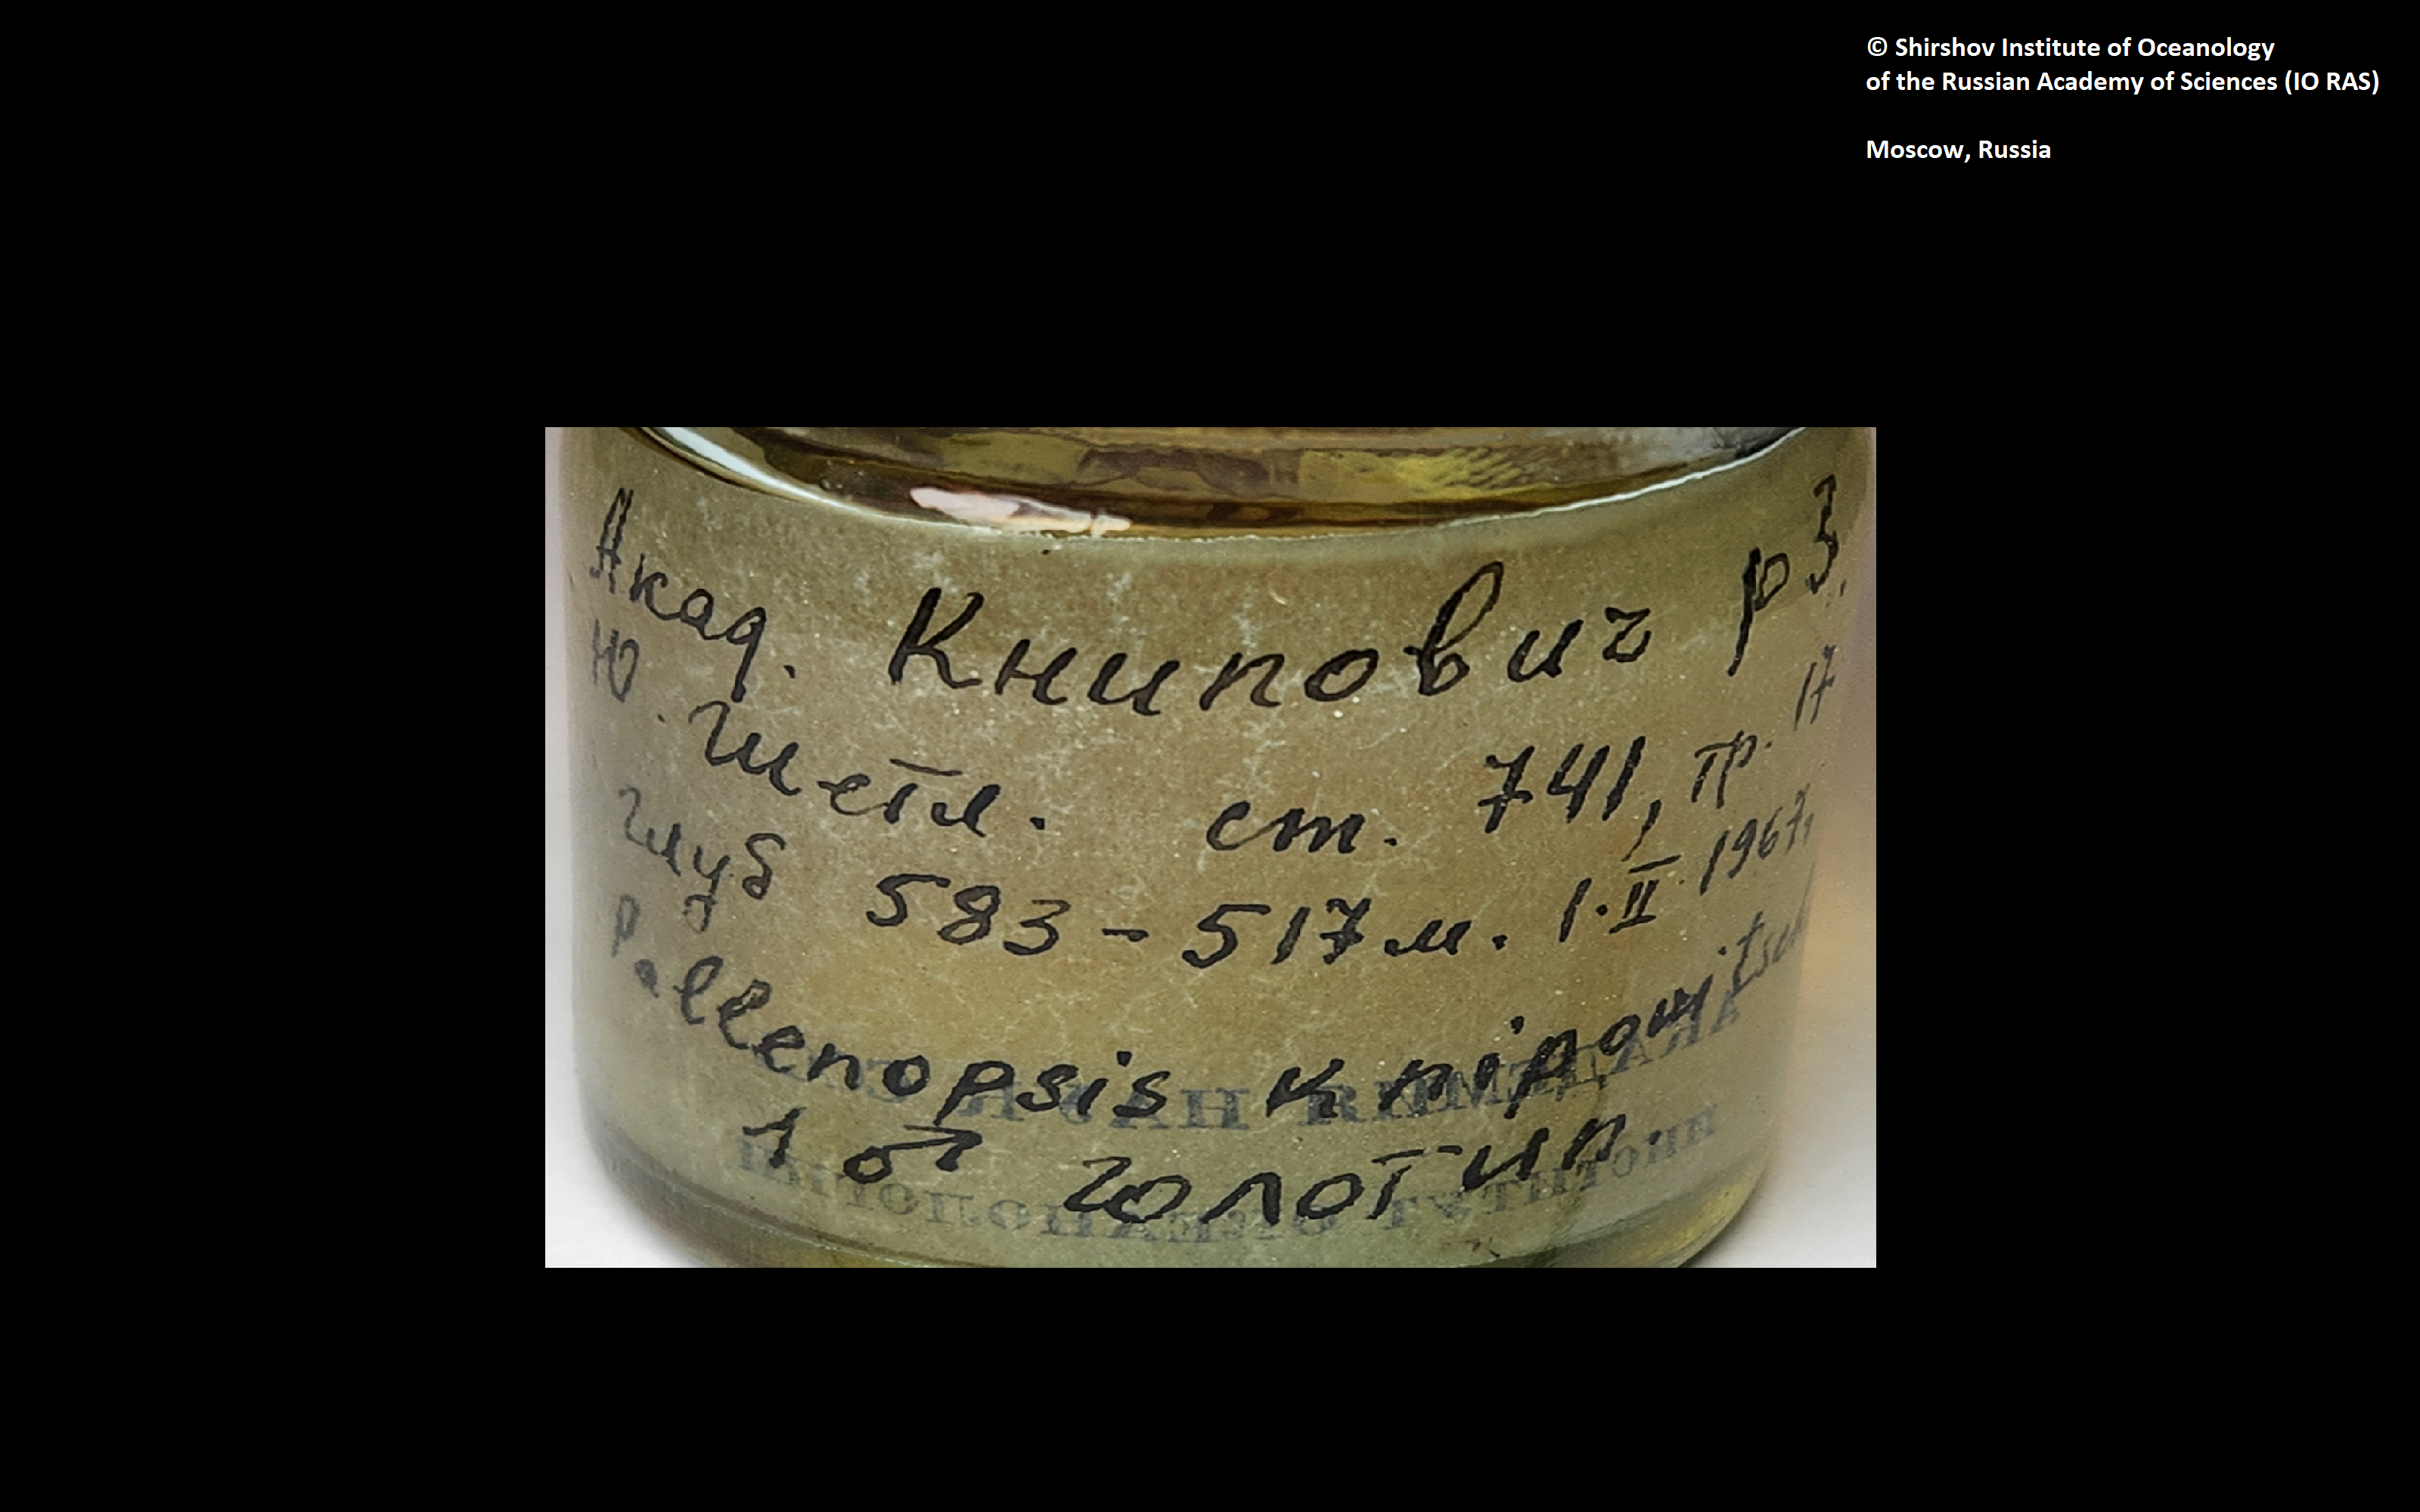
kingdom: Animalia
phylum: Arthropoda
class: Pycnogonida
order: Pantopoda
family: Pallenopsidae
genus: Pallenopsis
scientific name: Pallenopsis macronyx
